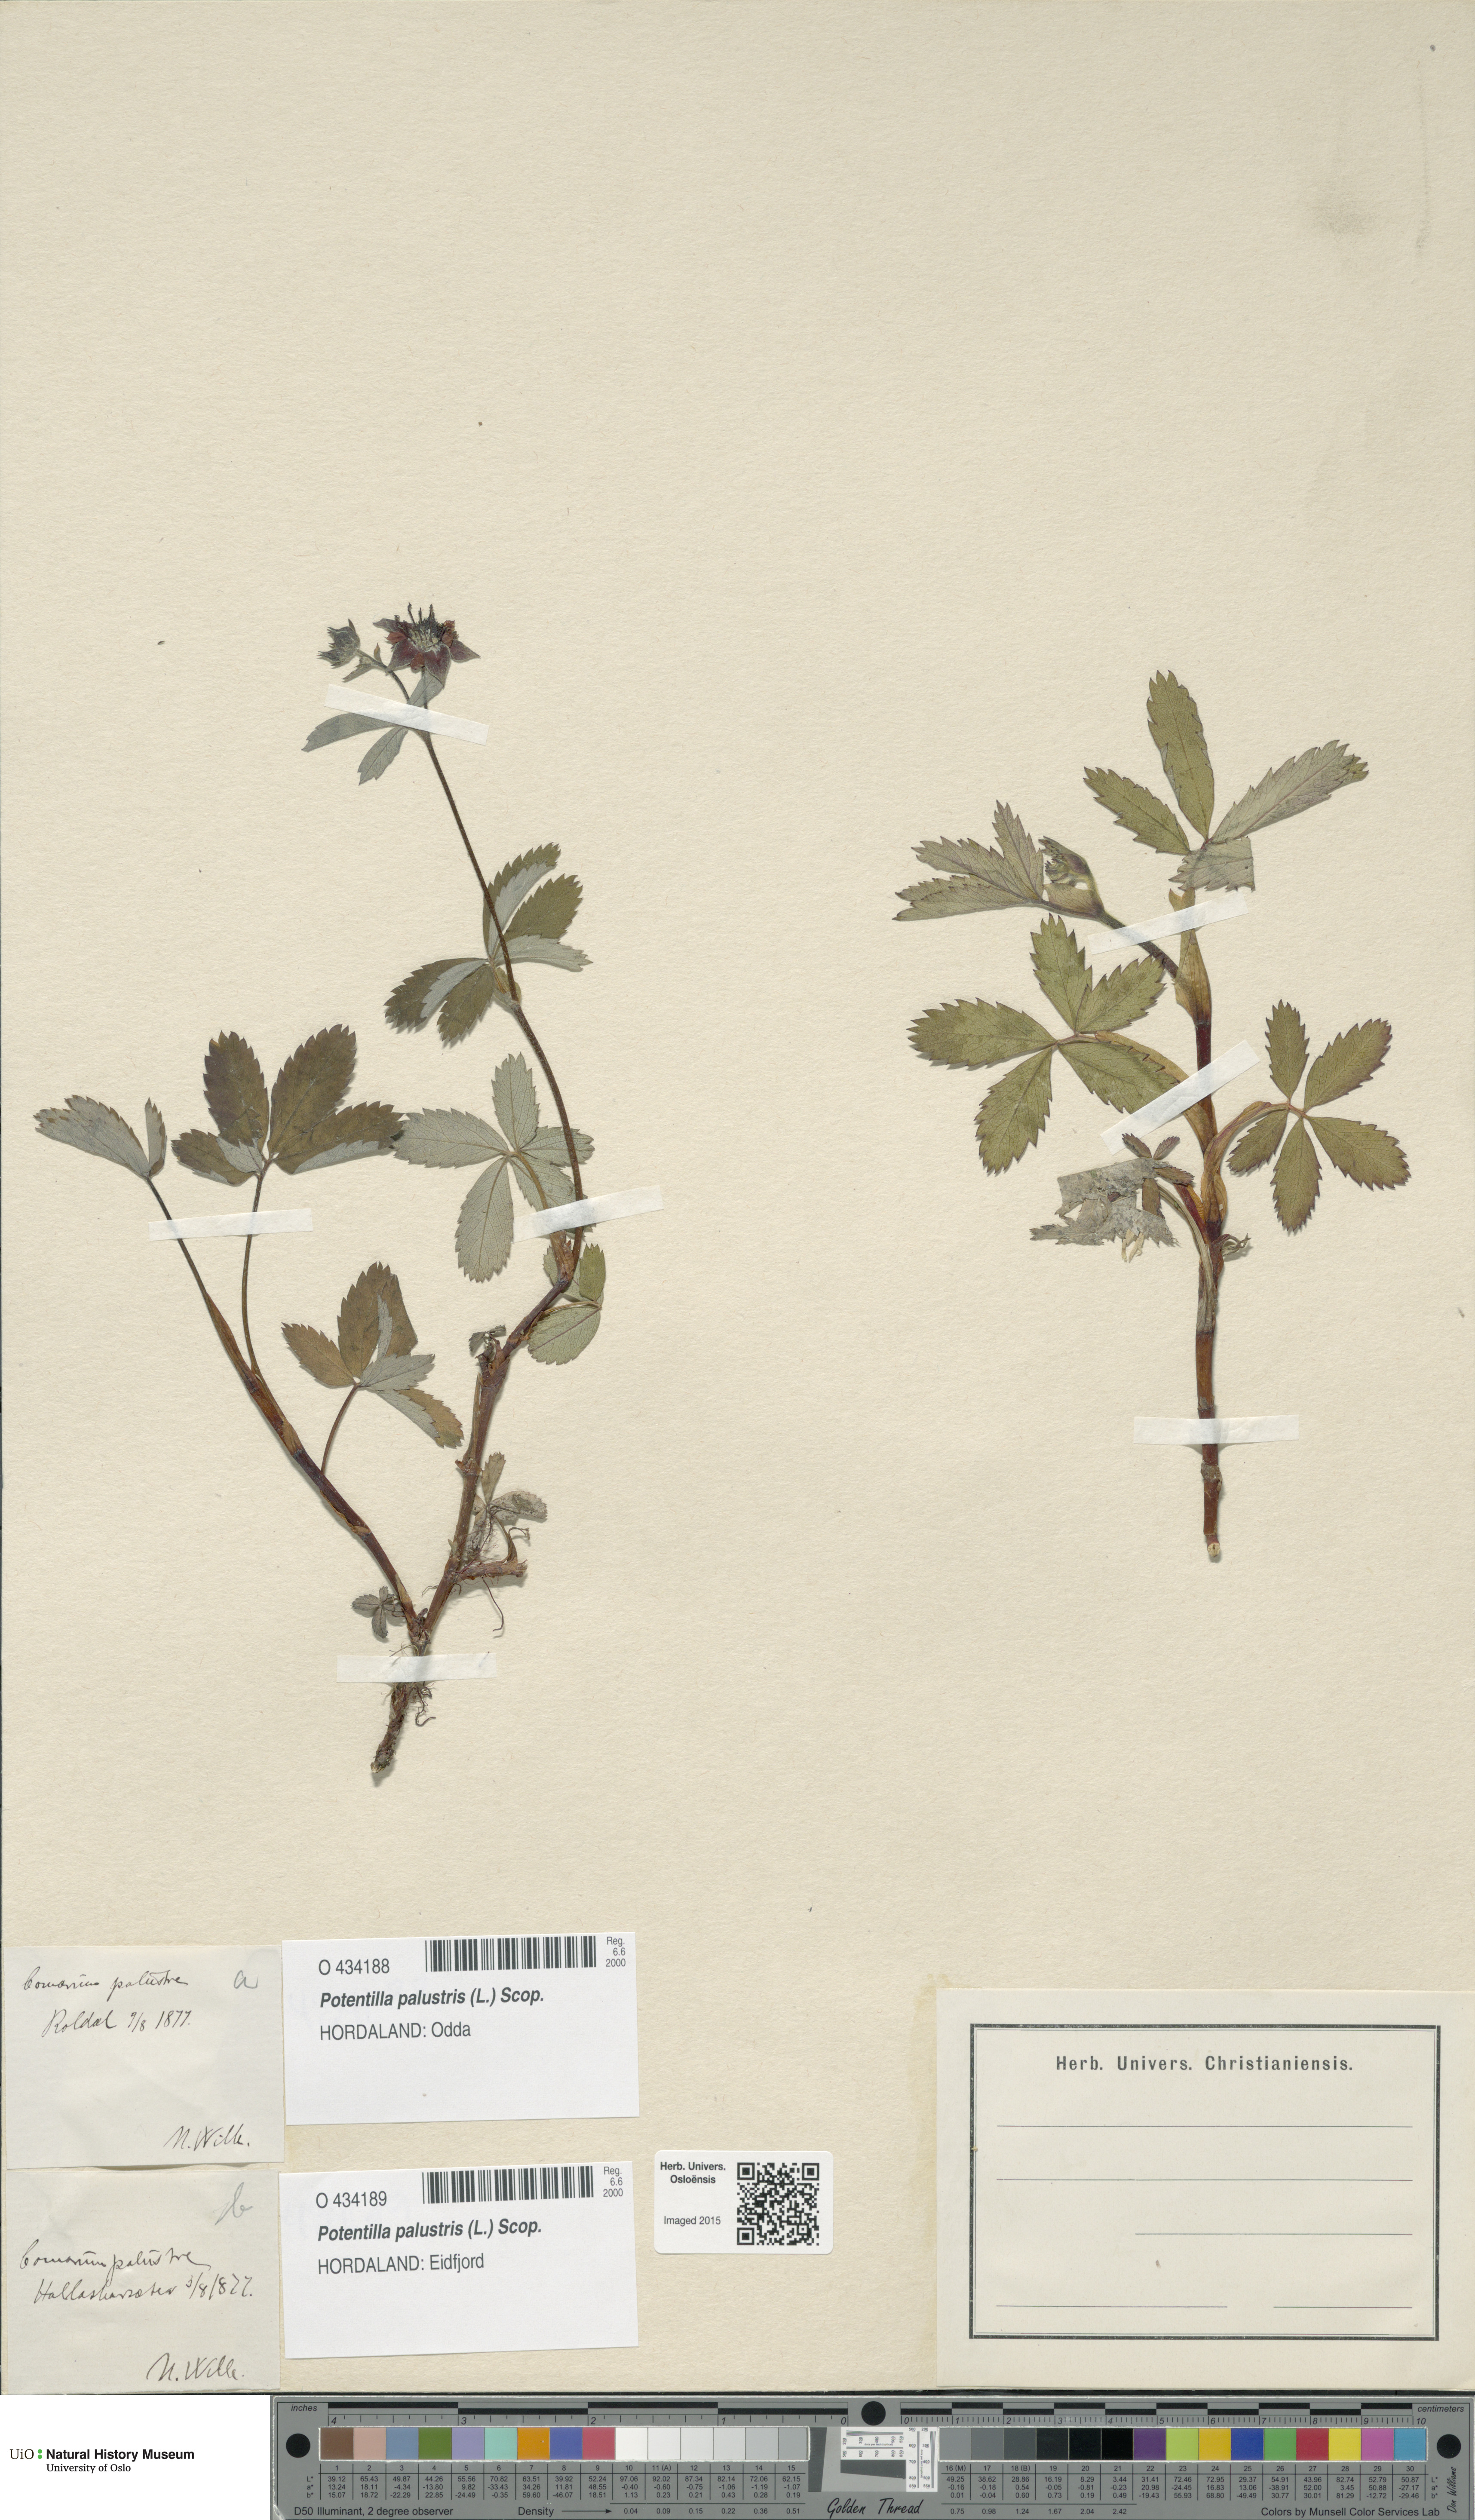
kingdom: Plantae
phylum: Tracheophyta
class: Magnoliopsida
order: Rosales
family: Rosaceae
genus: Comarum
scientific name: Comarum palustre
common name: Marsh cinquefoil
